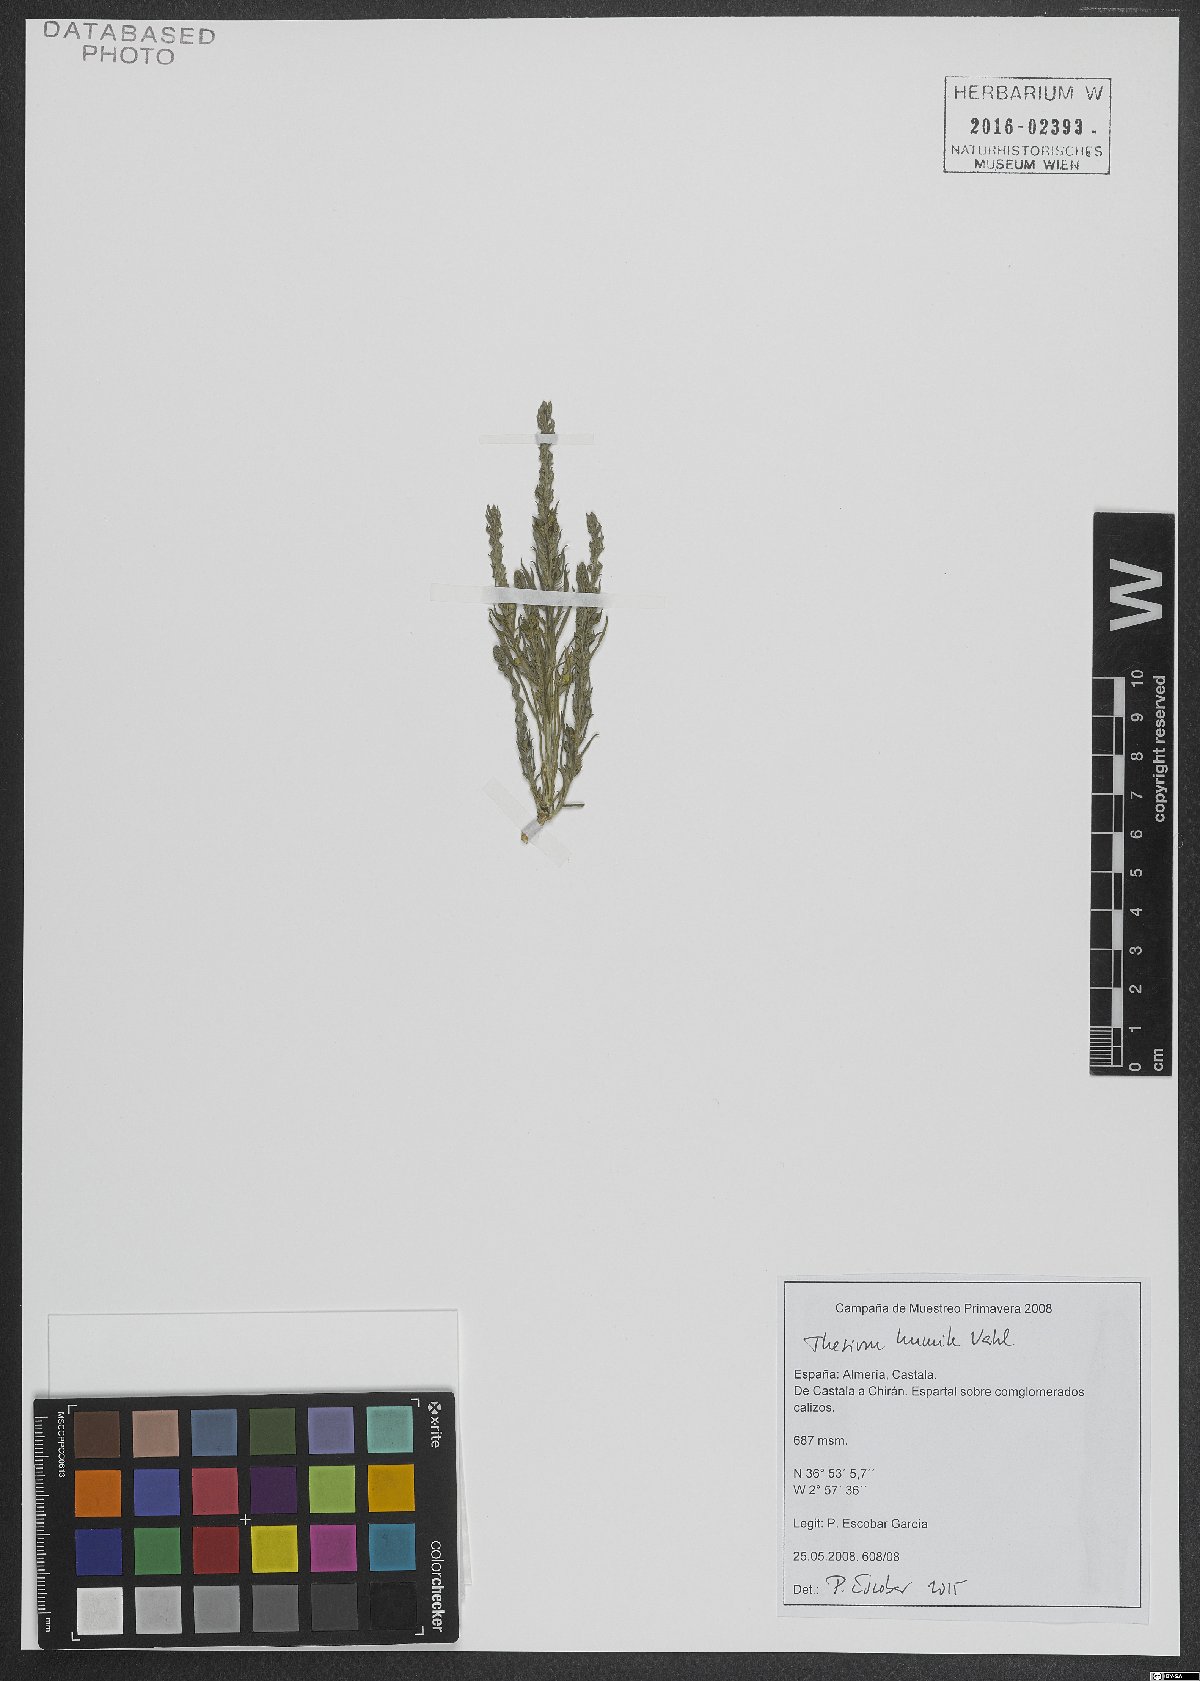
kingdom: Plantae
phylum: Tracheophyta
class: Magnoliopsida
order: Santalales
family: Thesiaceae
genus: Thesium
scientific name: Thesium humile
